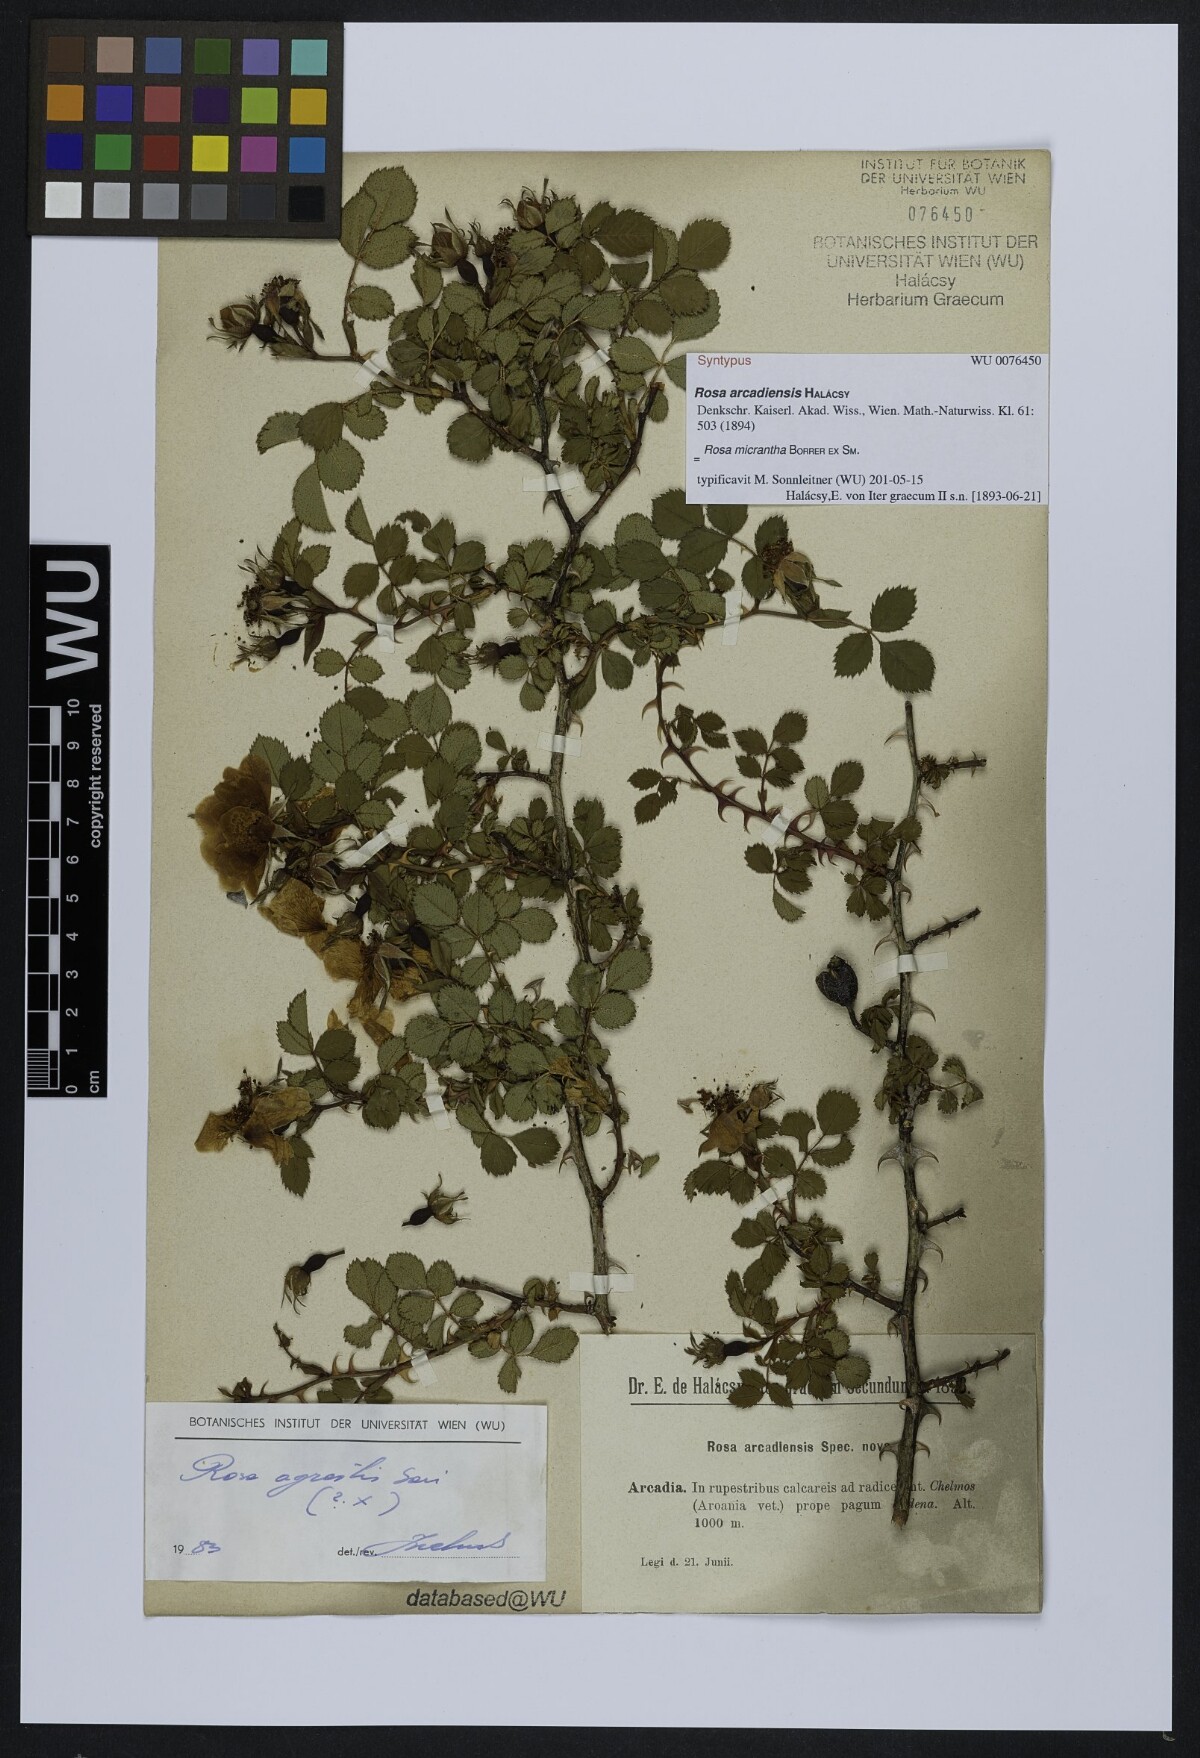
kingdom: Plantae
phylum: Tracheophyta
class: Magnoliopsida
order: Rosales
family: Rosaceae
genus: Rosa
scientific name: Rosa
